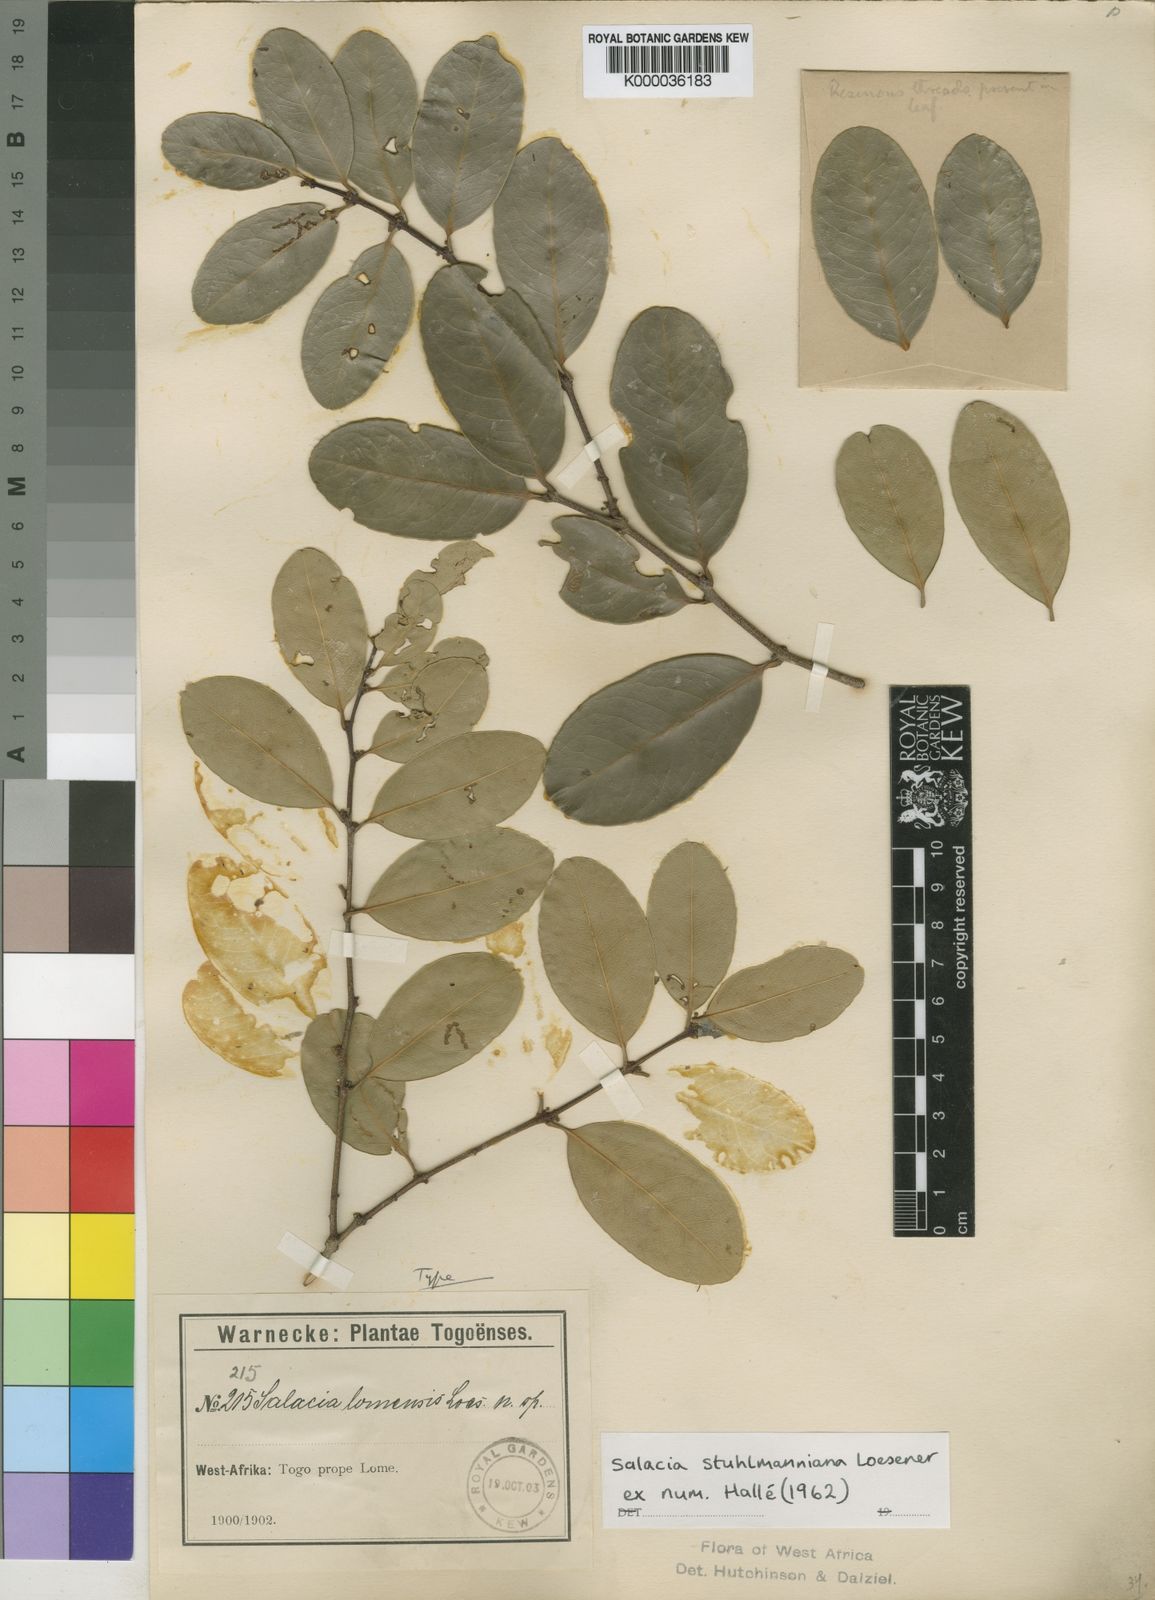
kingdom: Plantae
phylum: Tracheophyta
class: Magnoliopsida
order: Celastrales
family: Celastraceae
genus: Salacia
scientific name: Salacia stuhlmanniana
